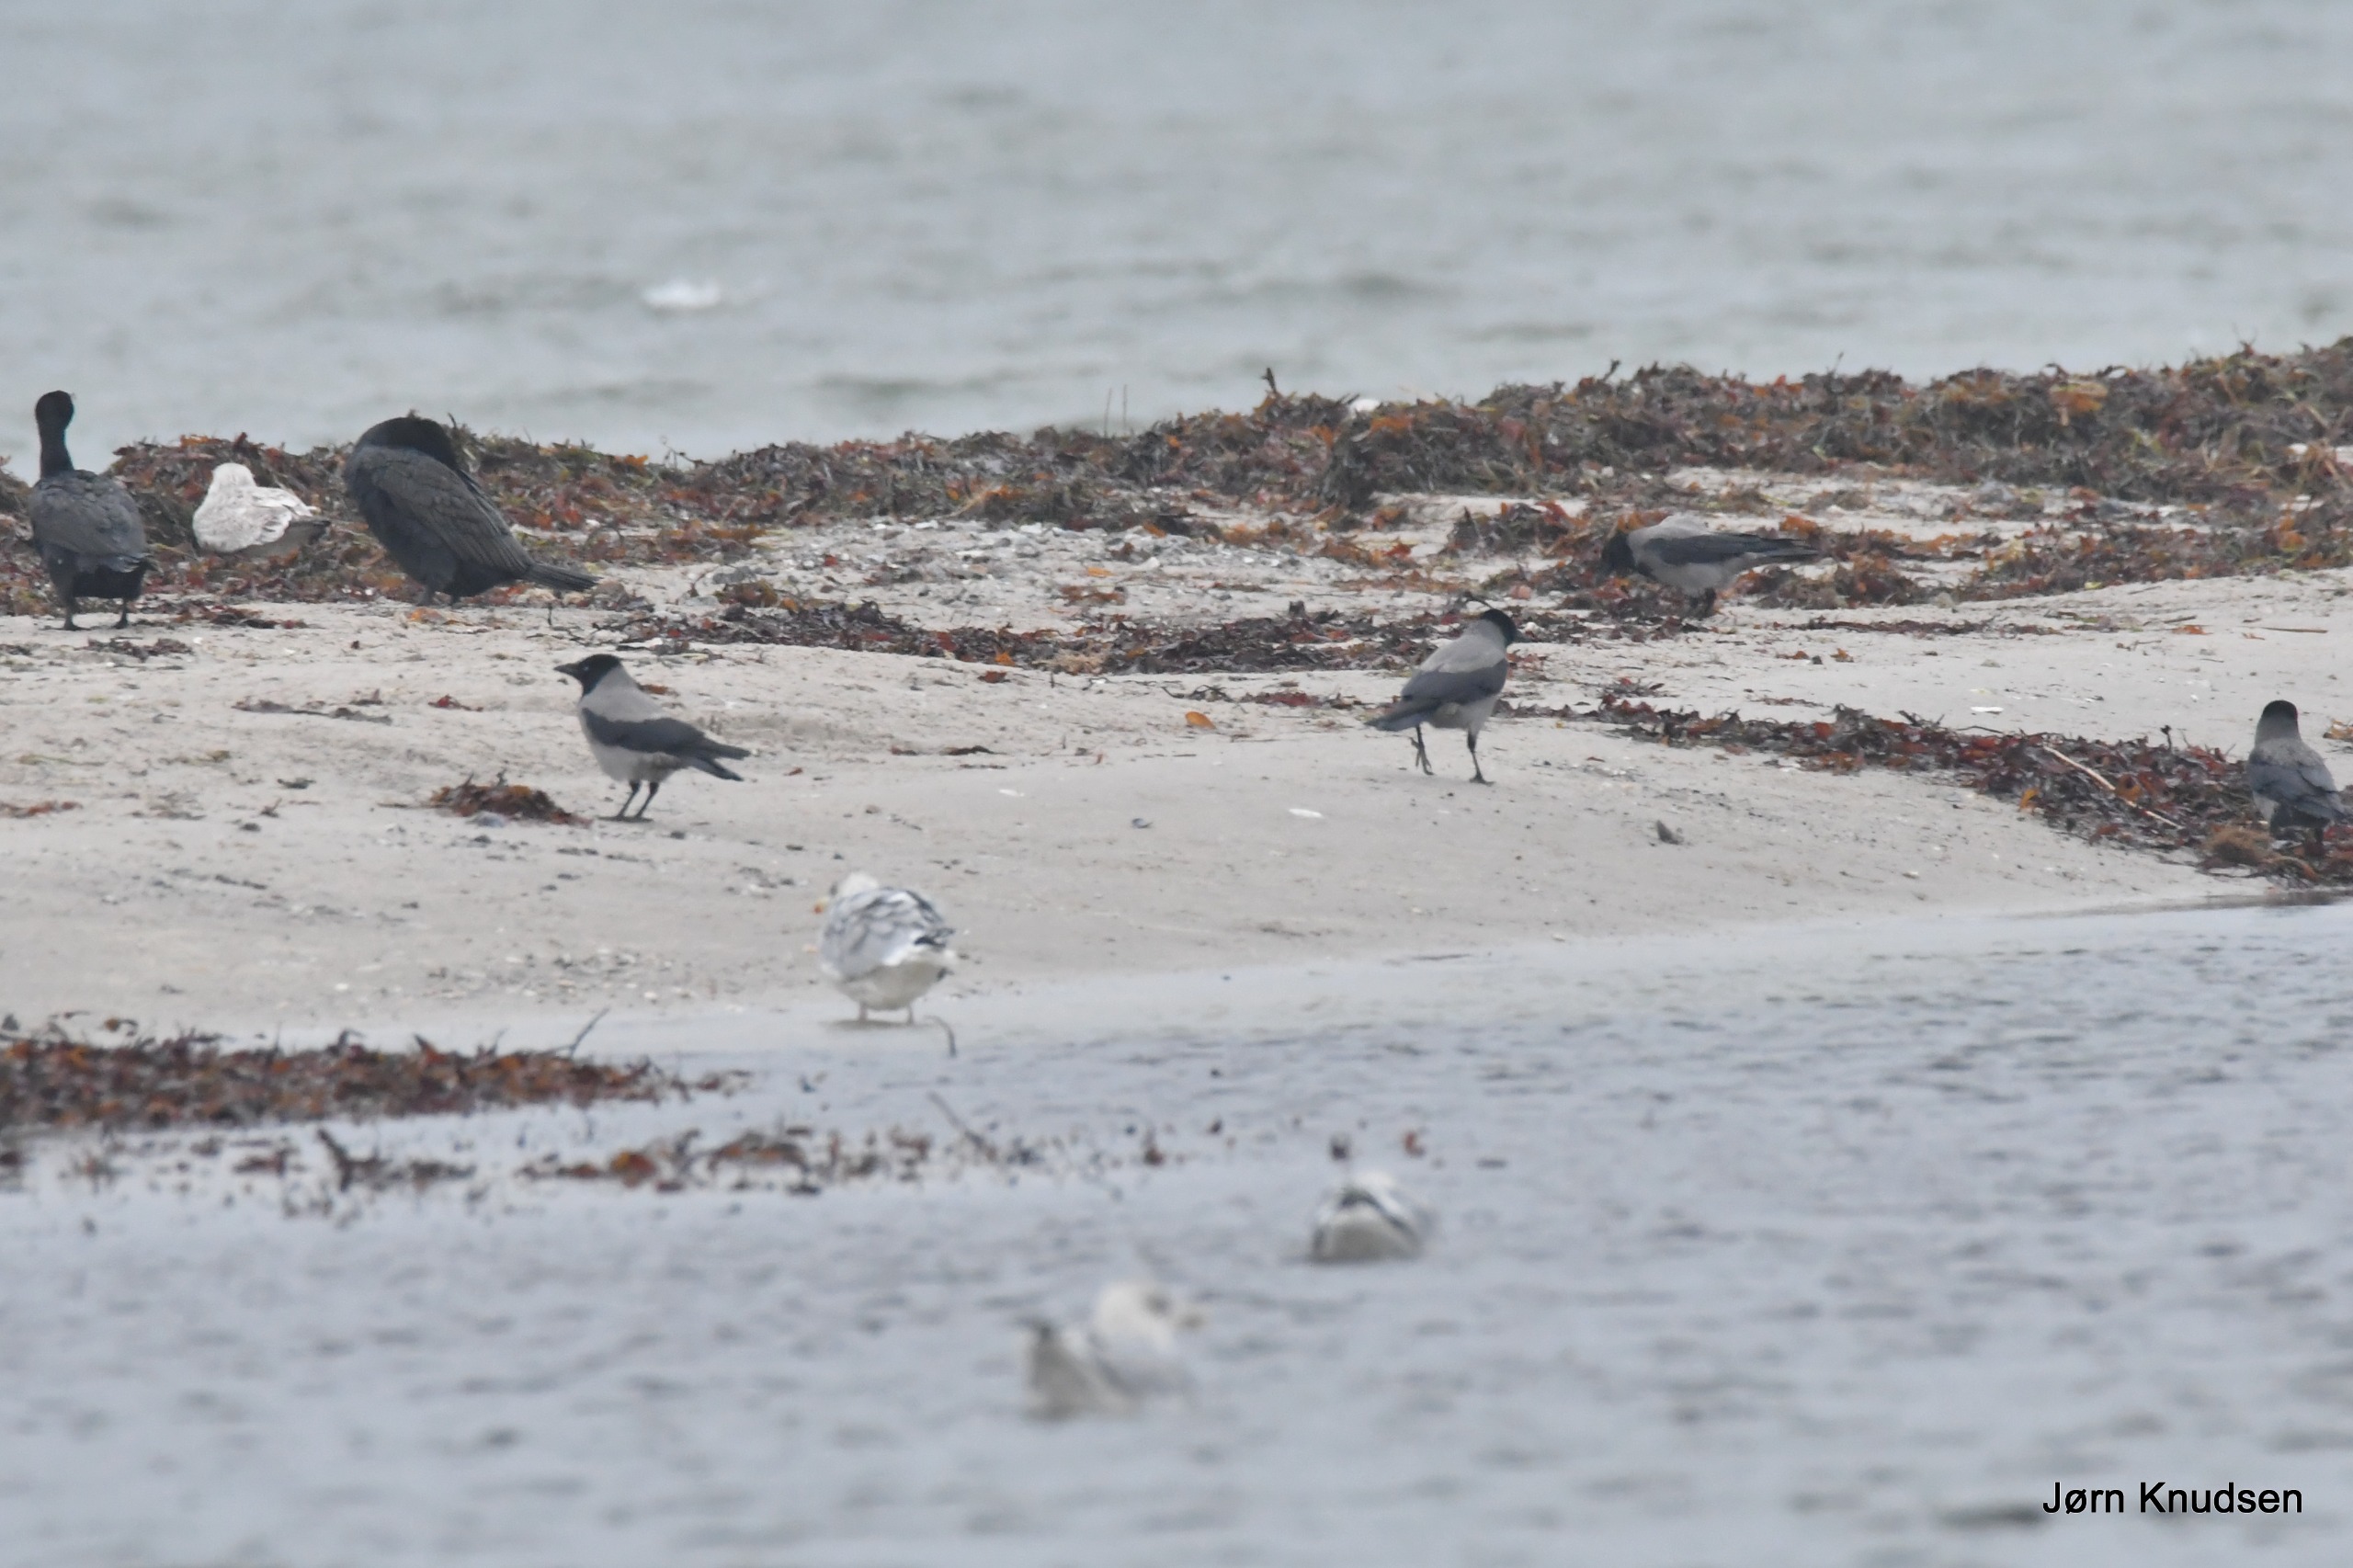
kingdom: Animalia
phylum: Chordata
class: Aves
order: Passeriformes
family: Corvidae
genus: Corvus
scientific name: Corvus cornix
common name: Gråkrage
